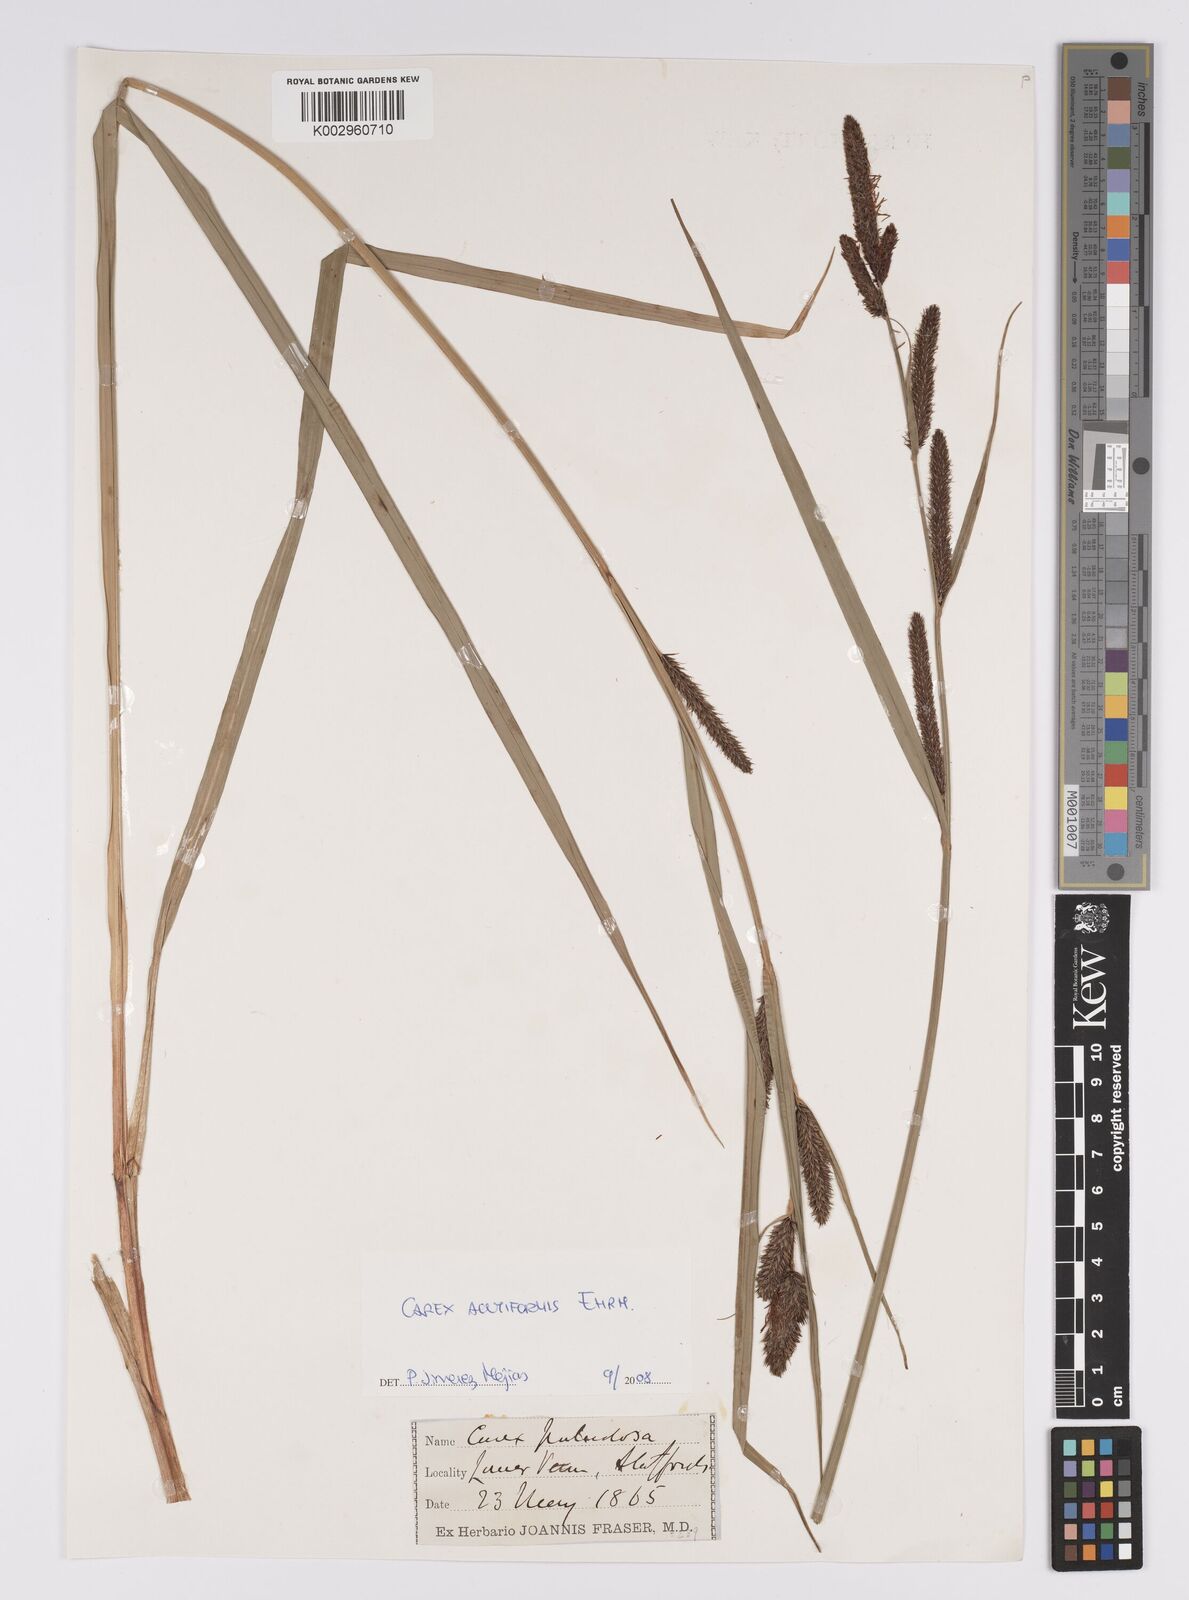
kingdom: Plantae
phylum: Tracheophyta
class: Liliopsida
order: Poales
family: Cyperaceae
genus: Carex
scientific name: Carex acutiformis
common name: Lesser pond-sedge
